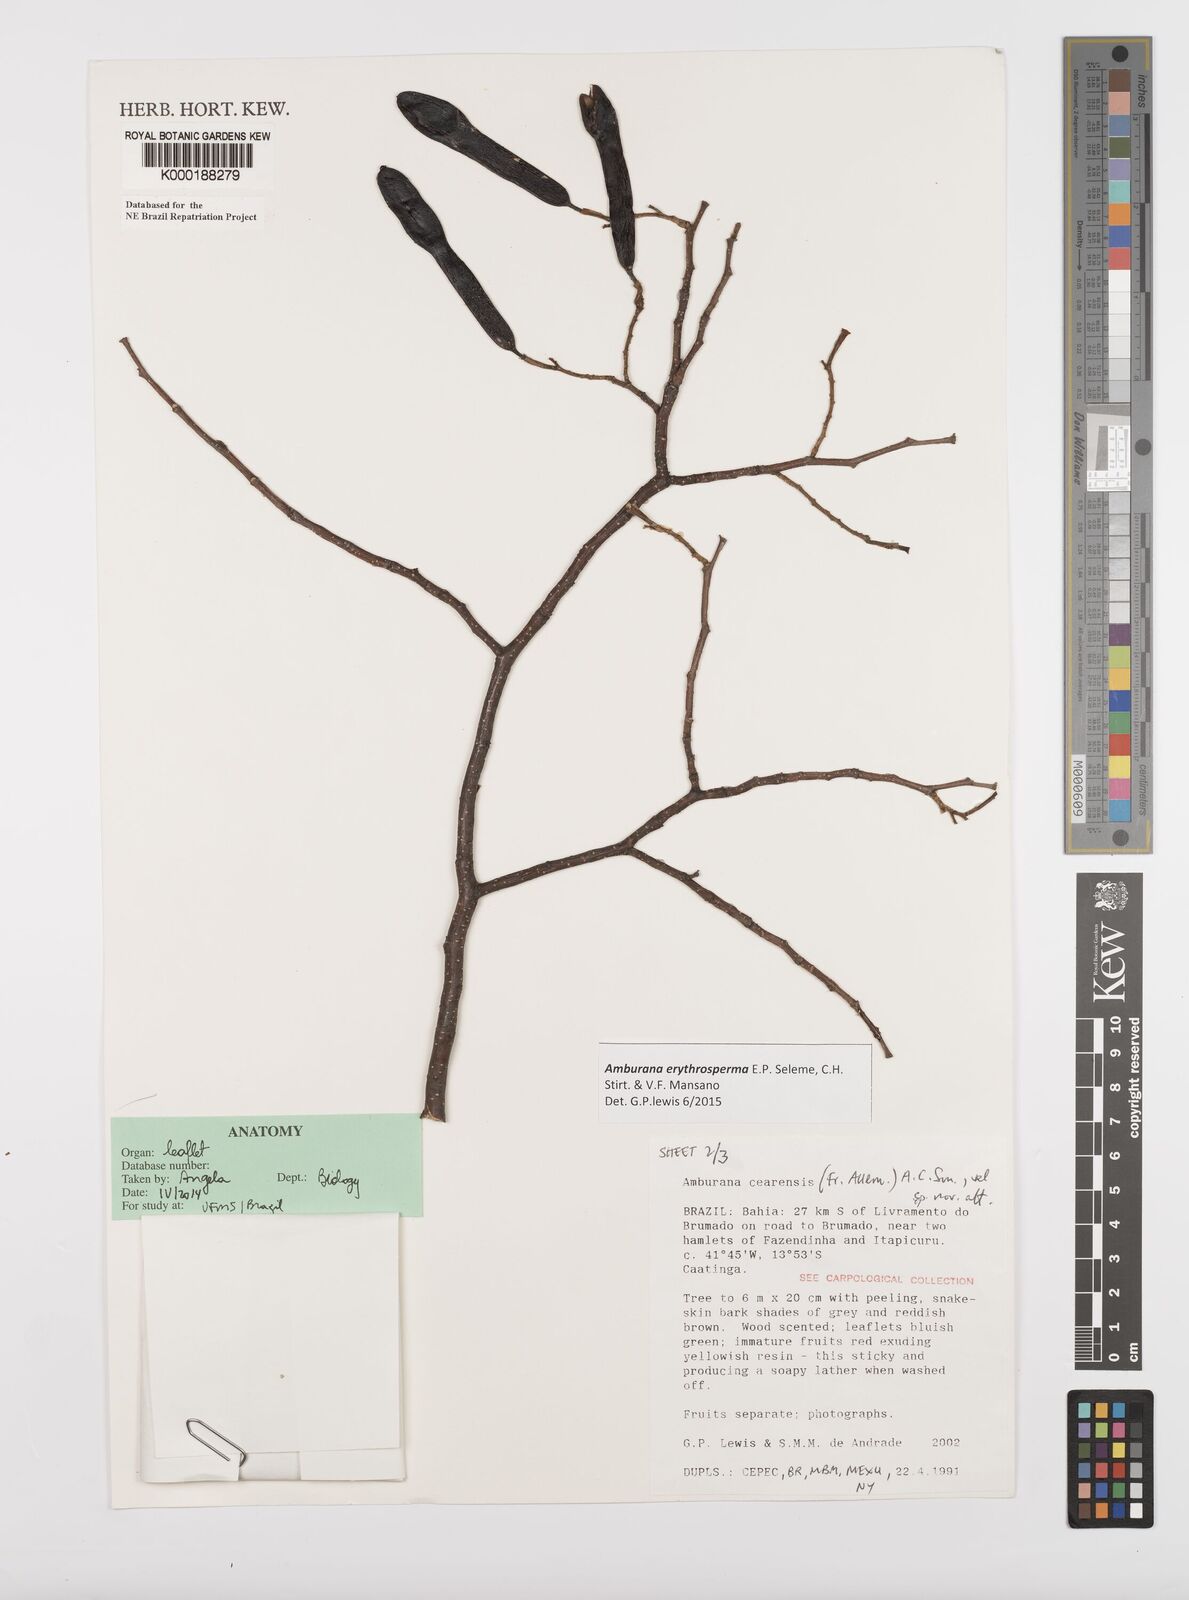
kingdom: Plantae
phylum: Tracheophyta
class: Magnoliopsida
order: Fabales
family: Fabaceae
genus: Amburana
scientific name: Amburana
